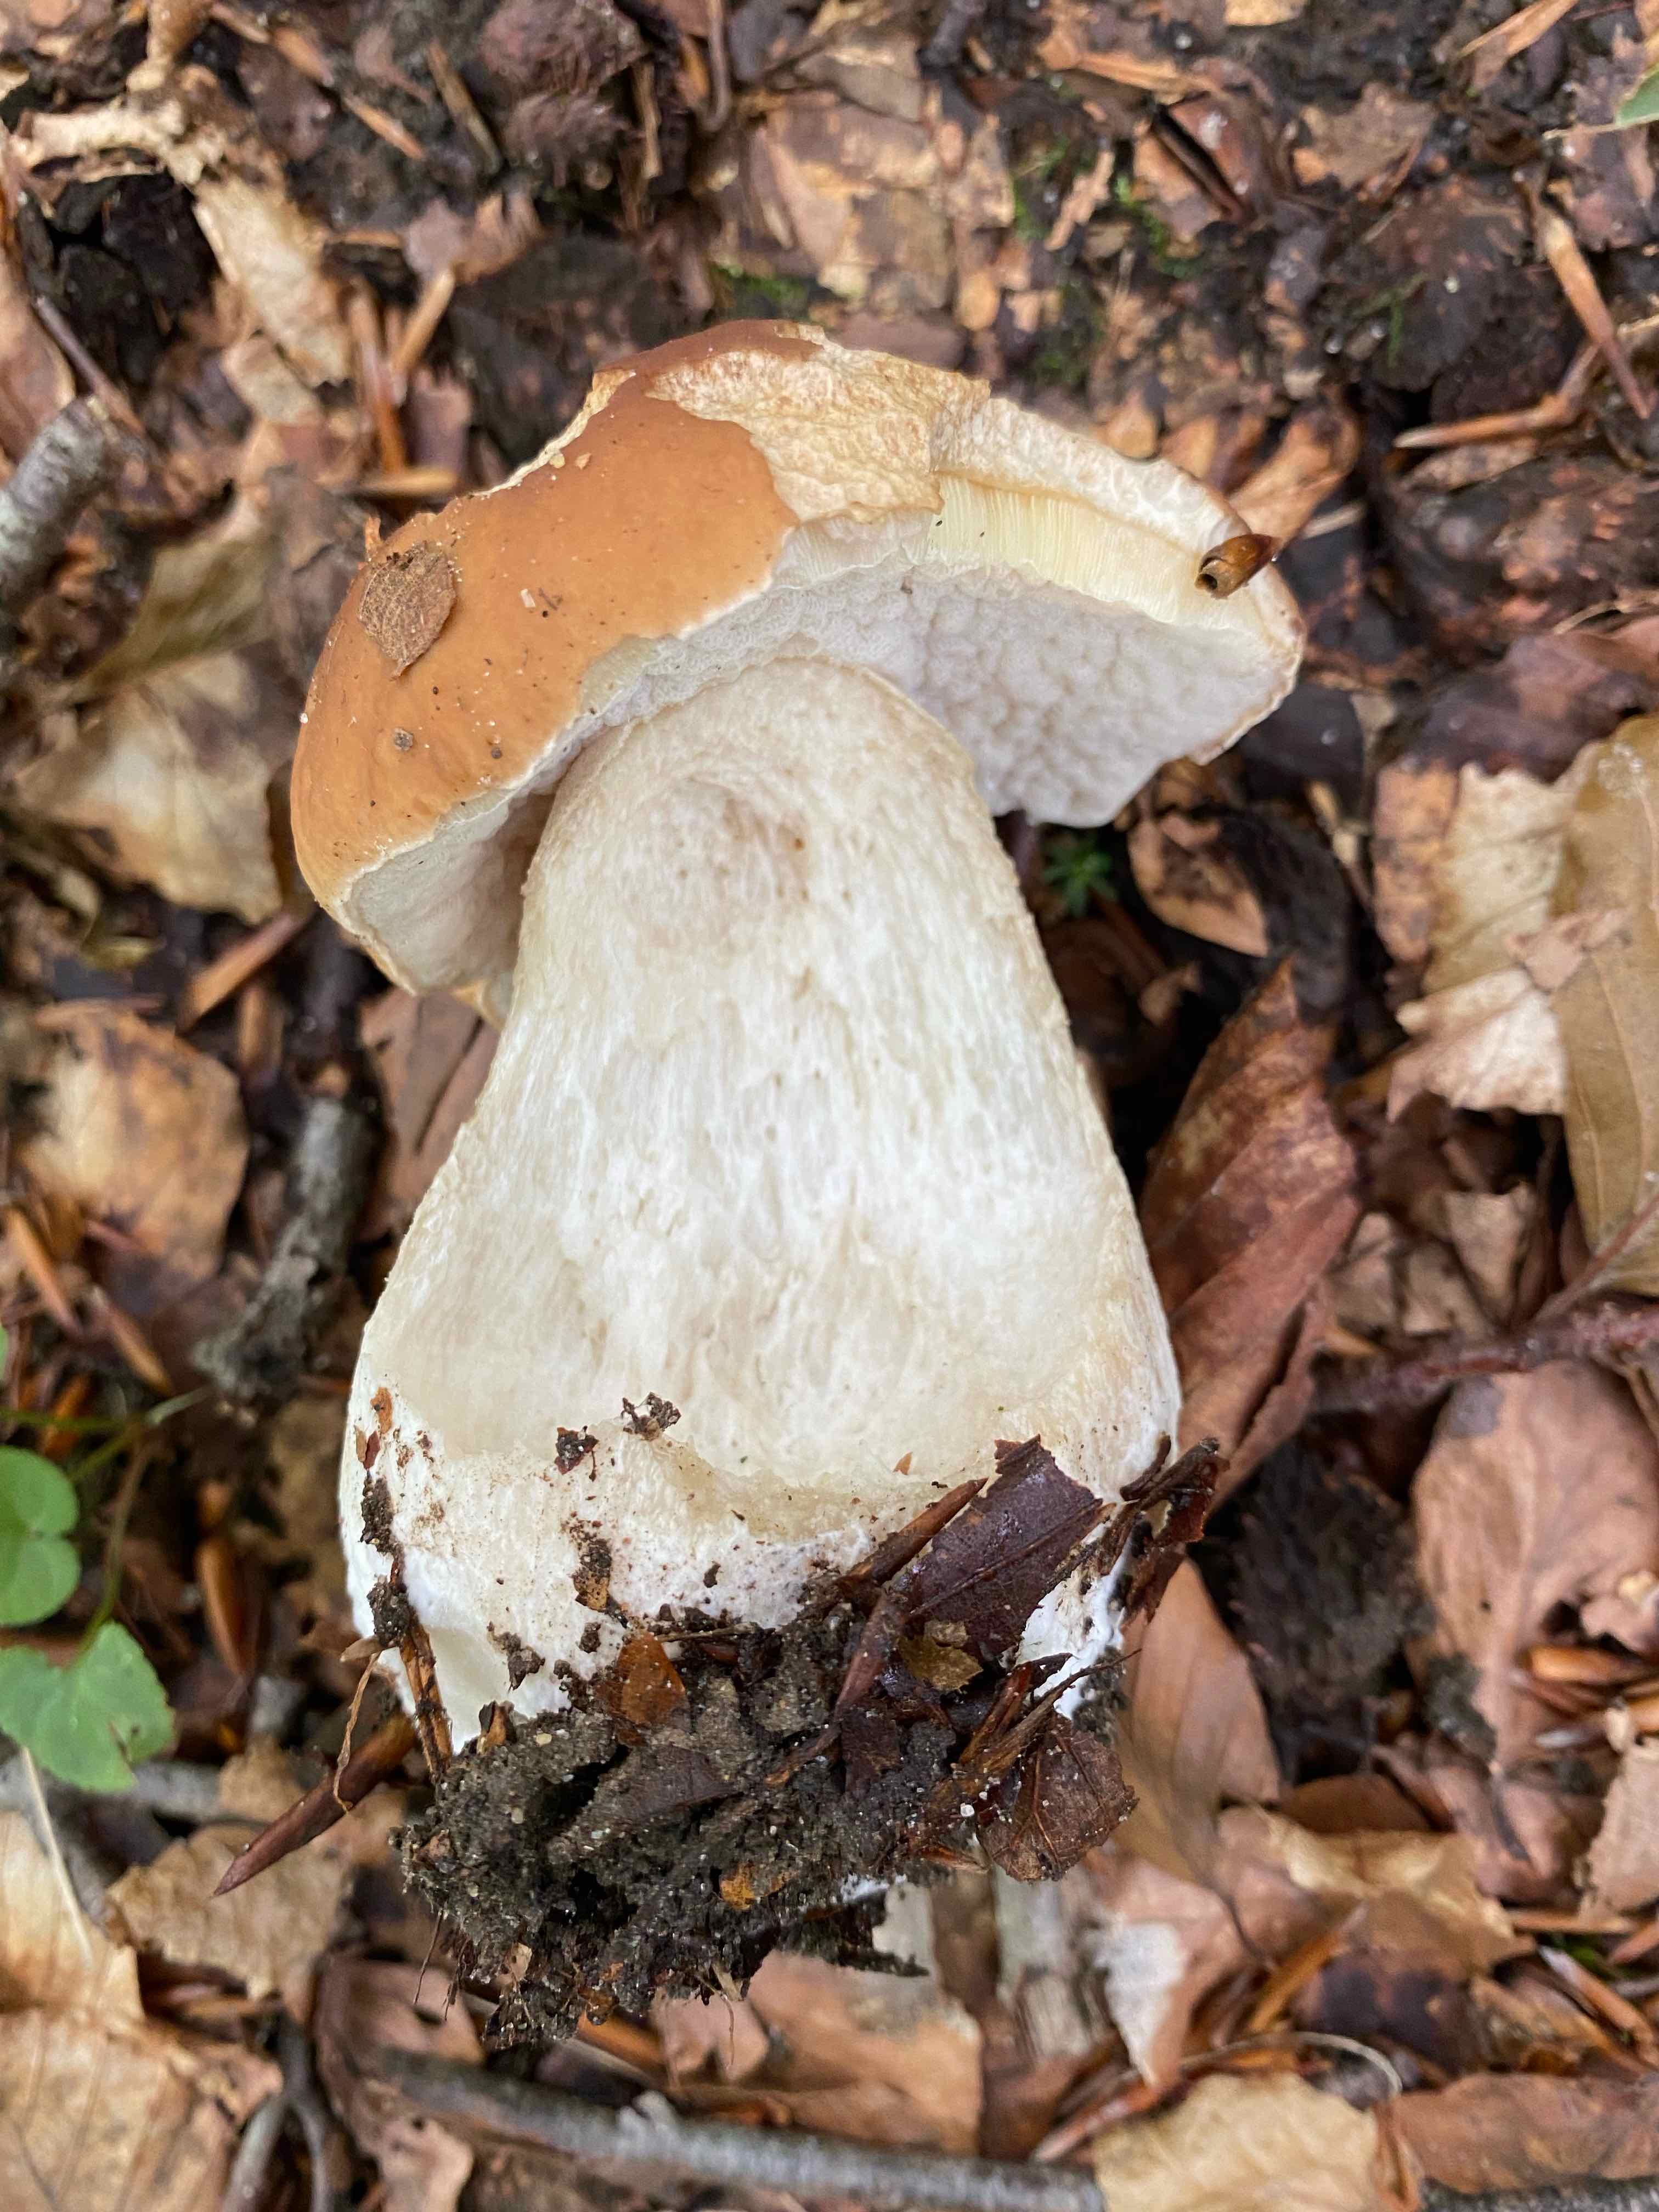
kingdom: Fungi
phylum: Basidiomycota
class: Agaricomycetes
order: Boletales
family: Boletaceae
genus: Boletus
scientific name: Boletus edulis
